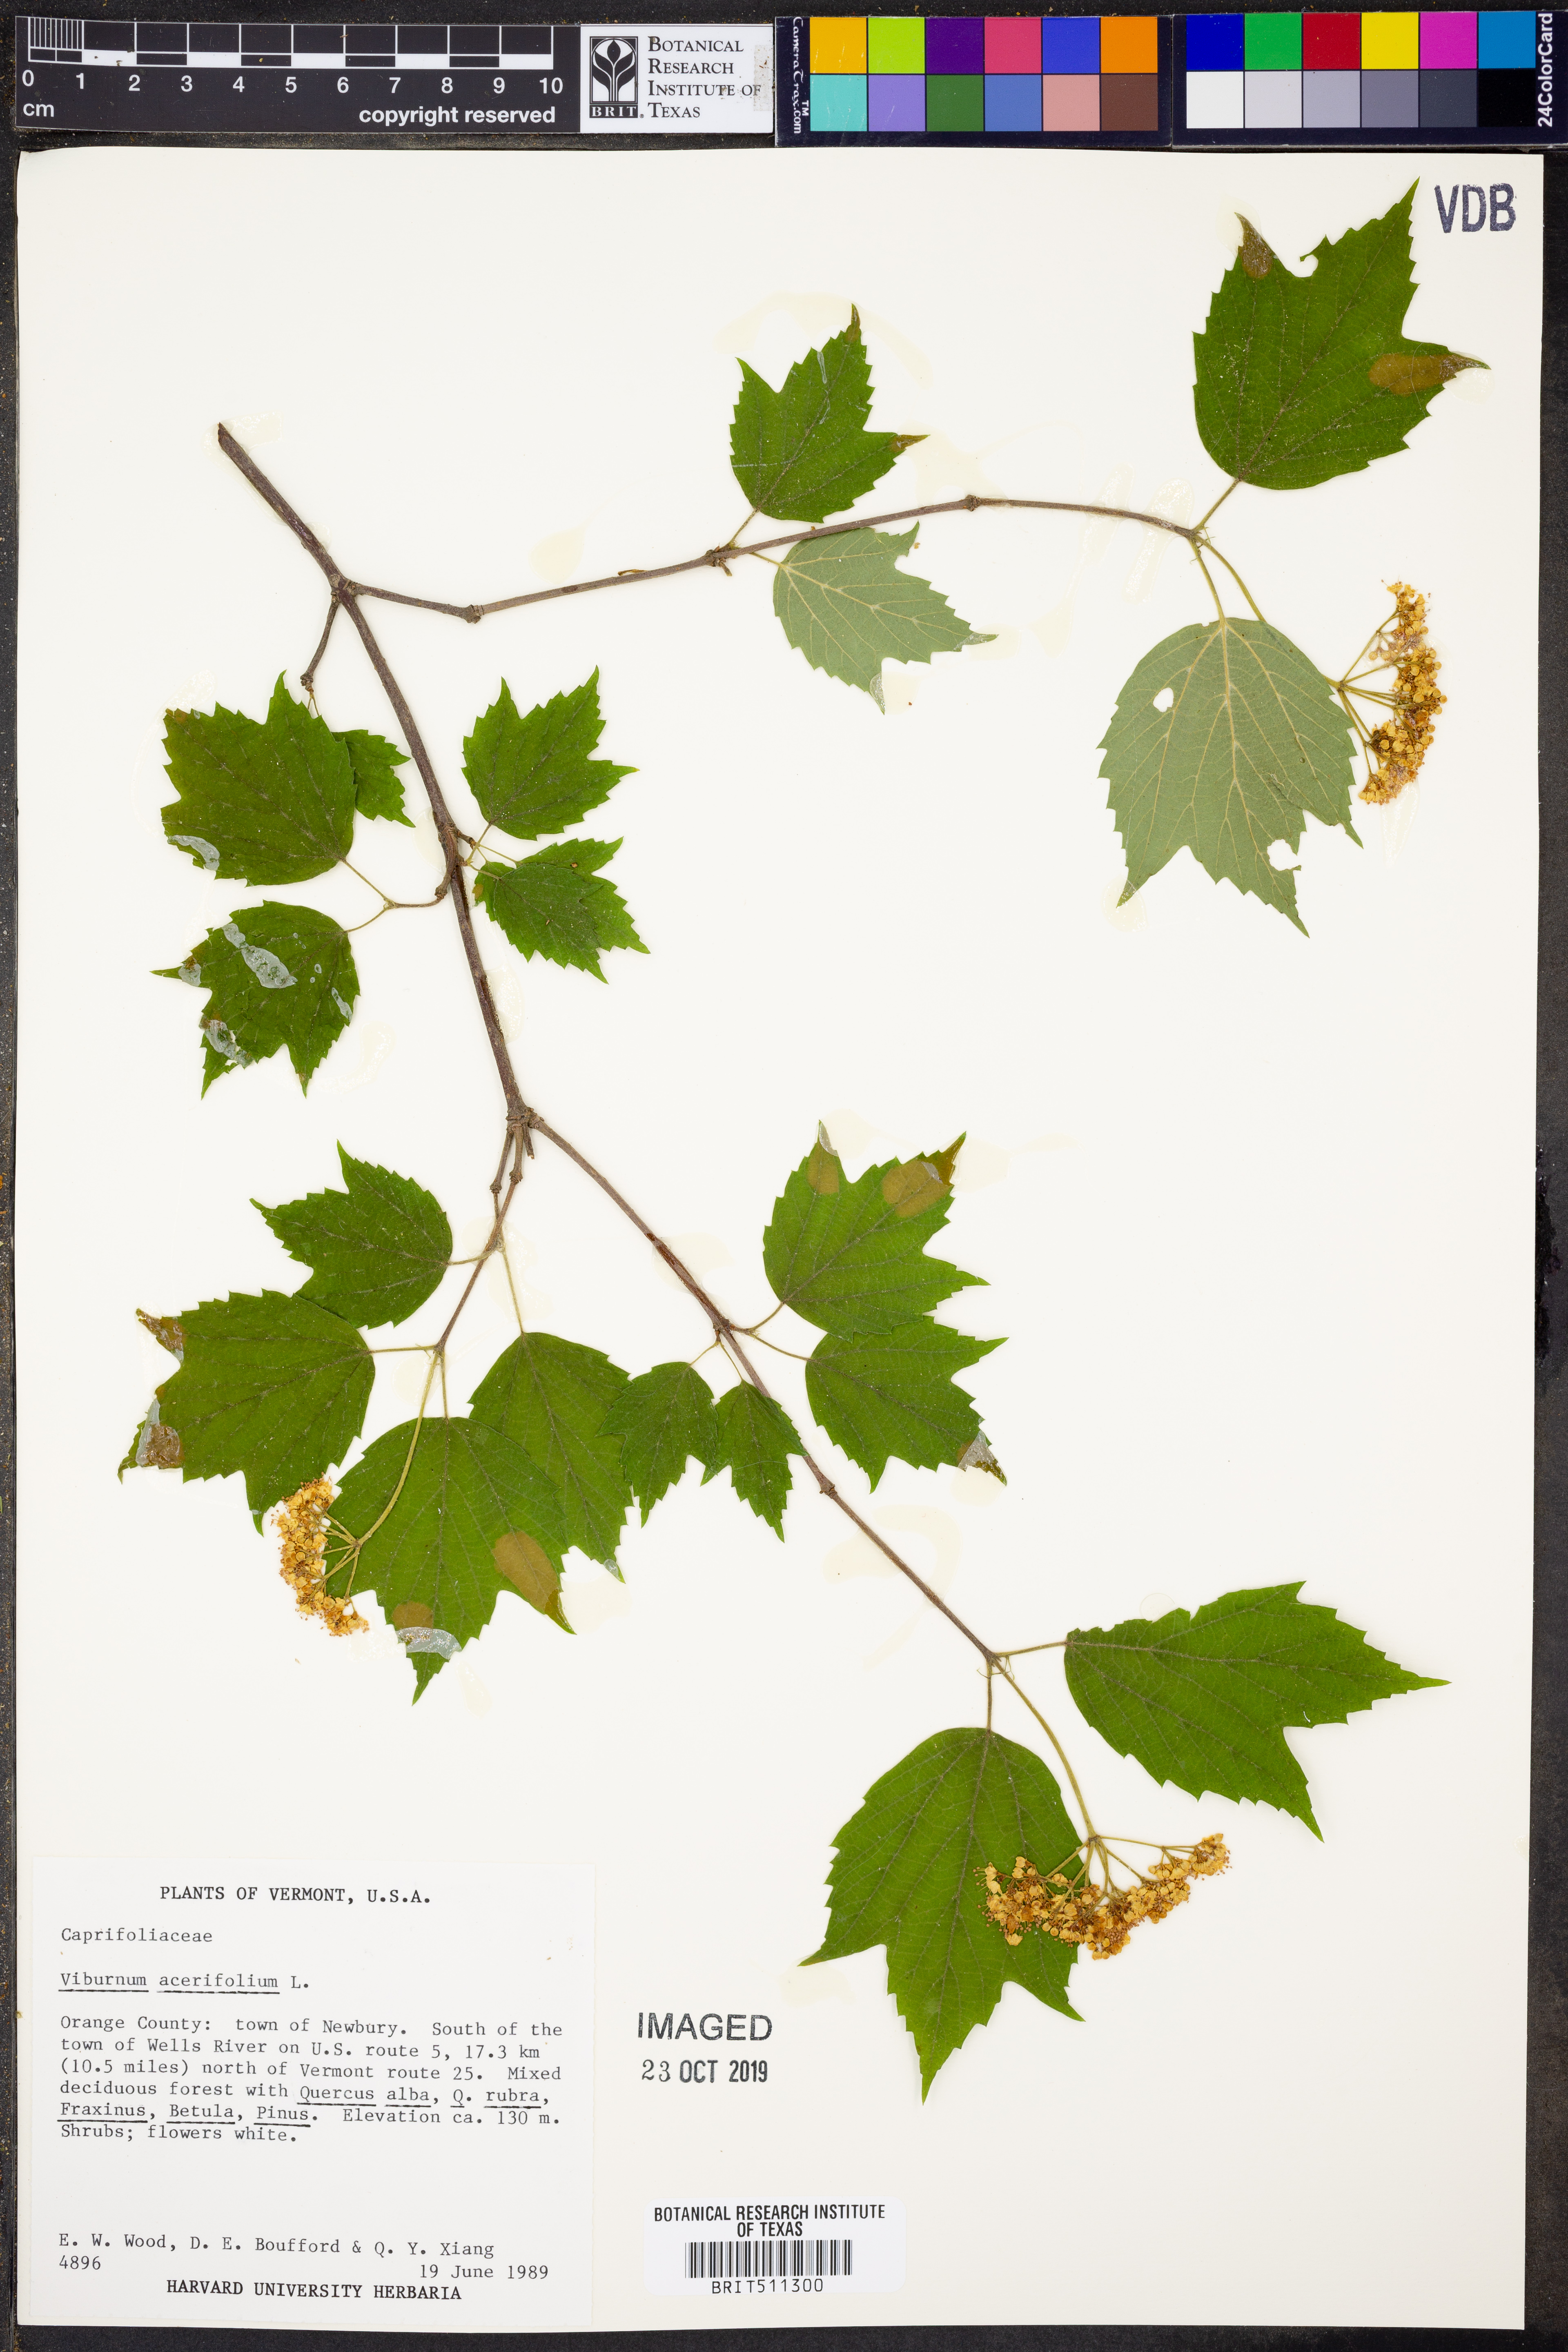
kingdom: Plantae
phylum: Tracheophyta
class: Magnoliopsida
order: Dipsacales
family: Viburnaceae
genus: Viburnum
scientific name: Viburnum acerifolium
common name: Dockmackie
